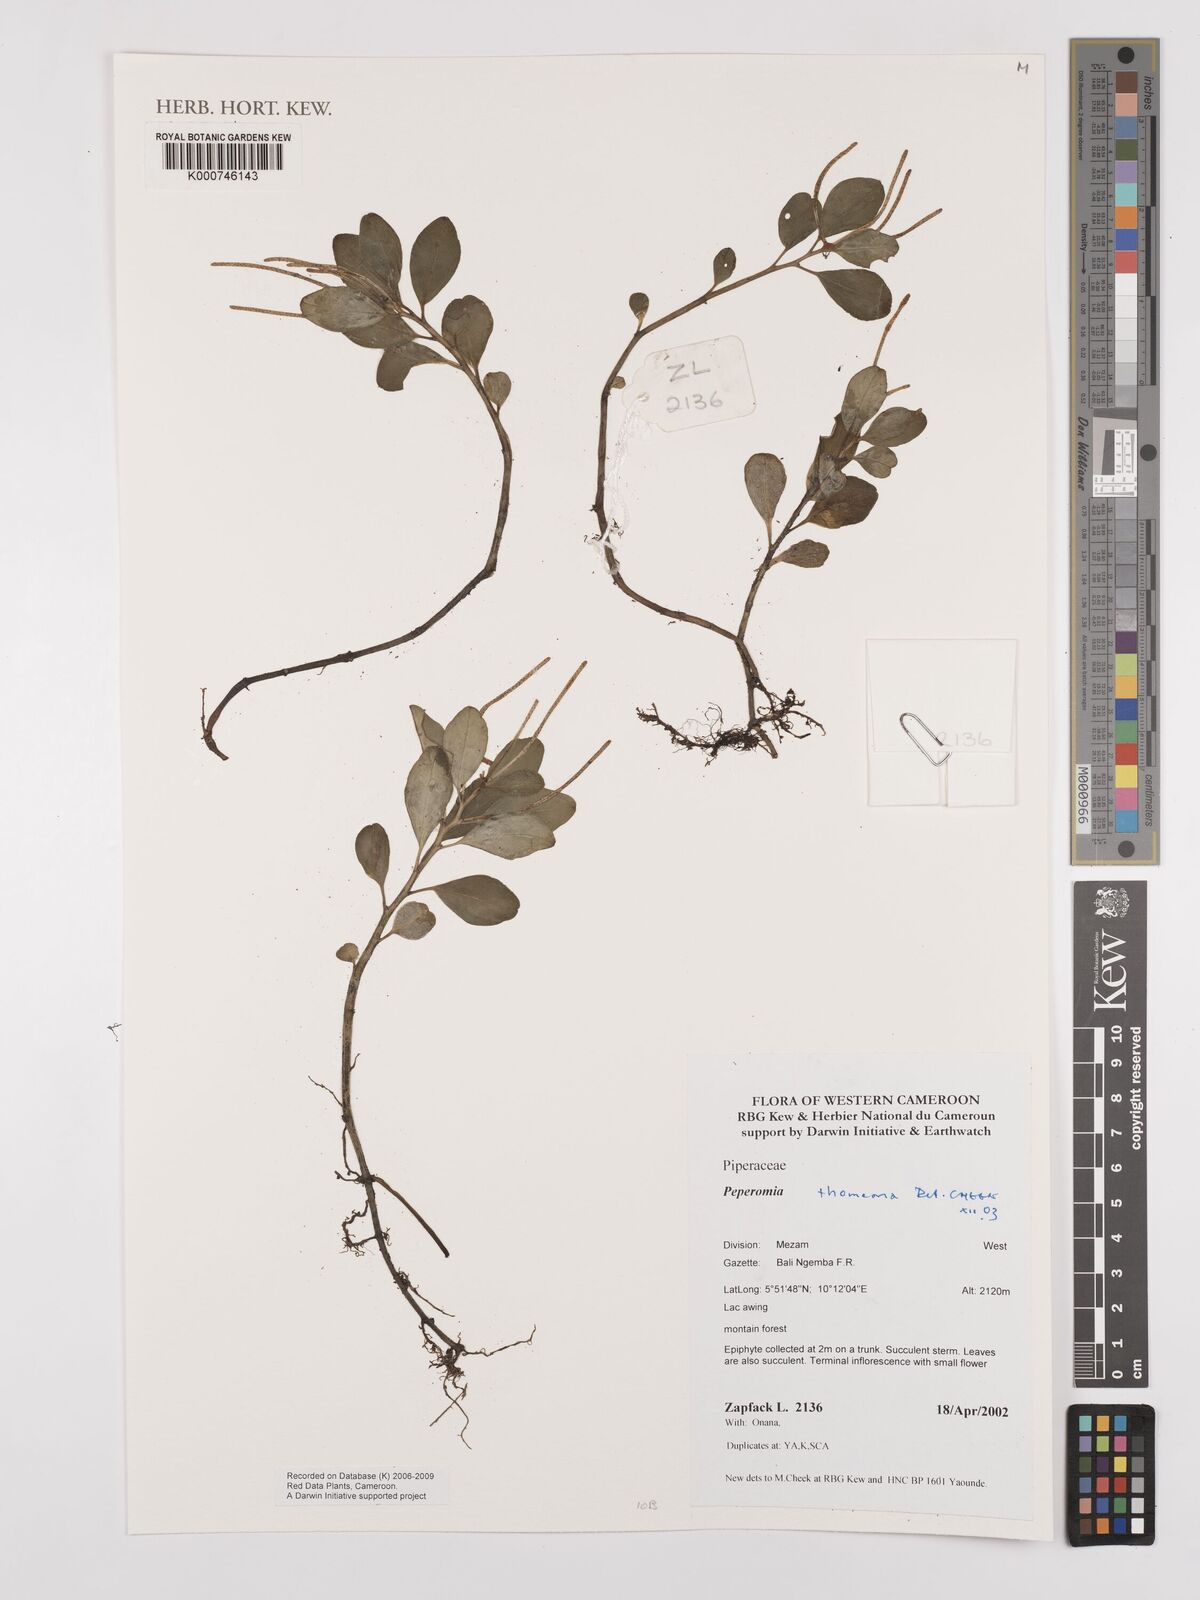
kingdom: Plantae
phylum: Tracheophyta
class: Magnoliopsida
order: Piperales
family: Piperaceae
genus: Peperomia
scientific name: Peperomia thomeana
